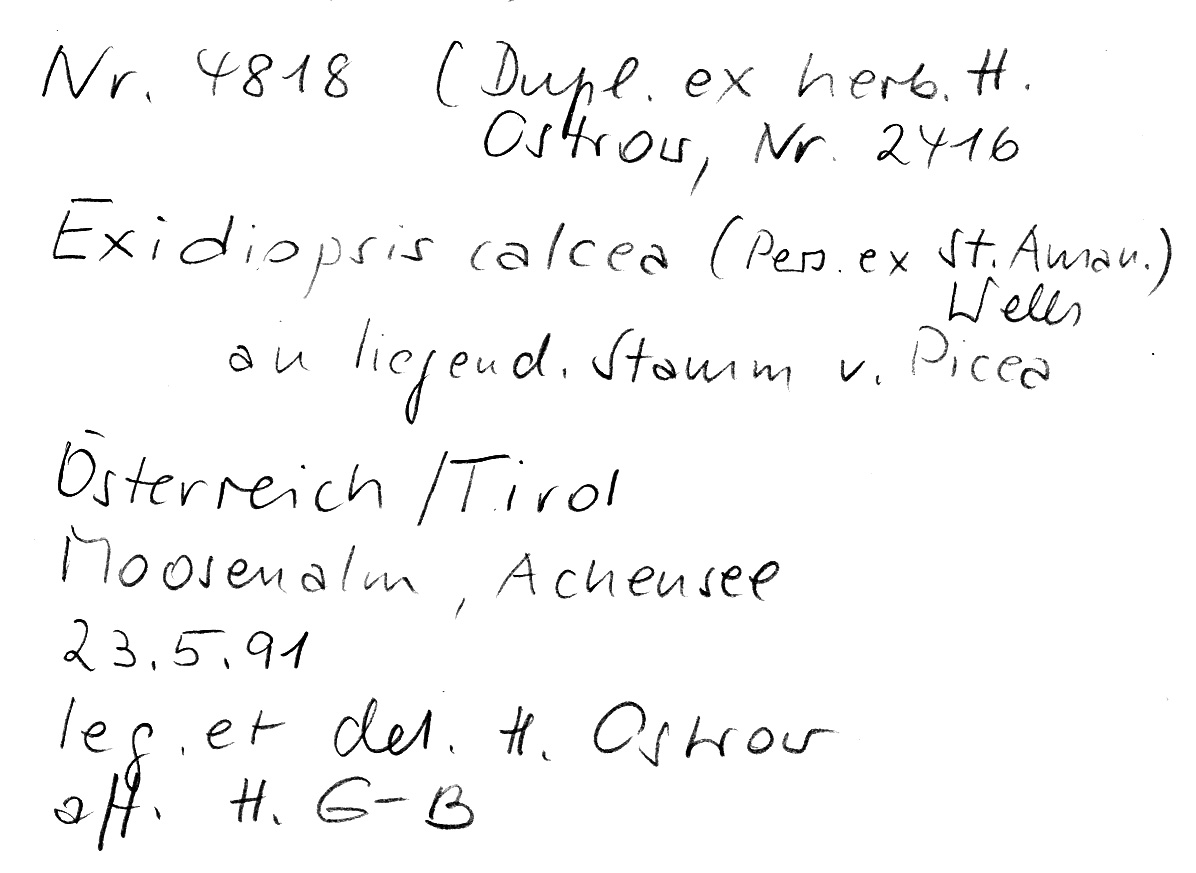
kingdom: Plantae
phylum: Tracheophyta
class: Pinopsida
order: Pinales
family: Pinaceae
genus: Picea
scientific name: Picea
